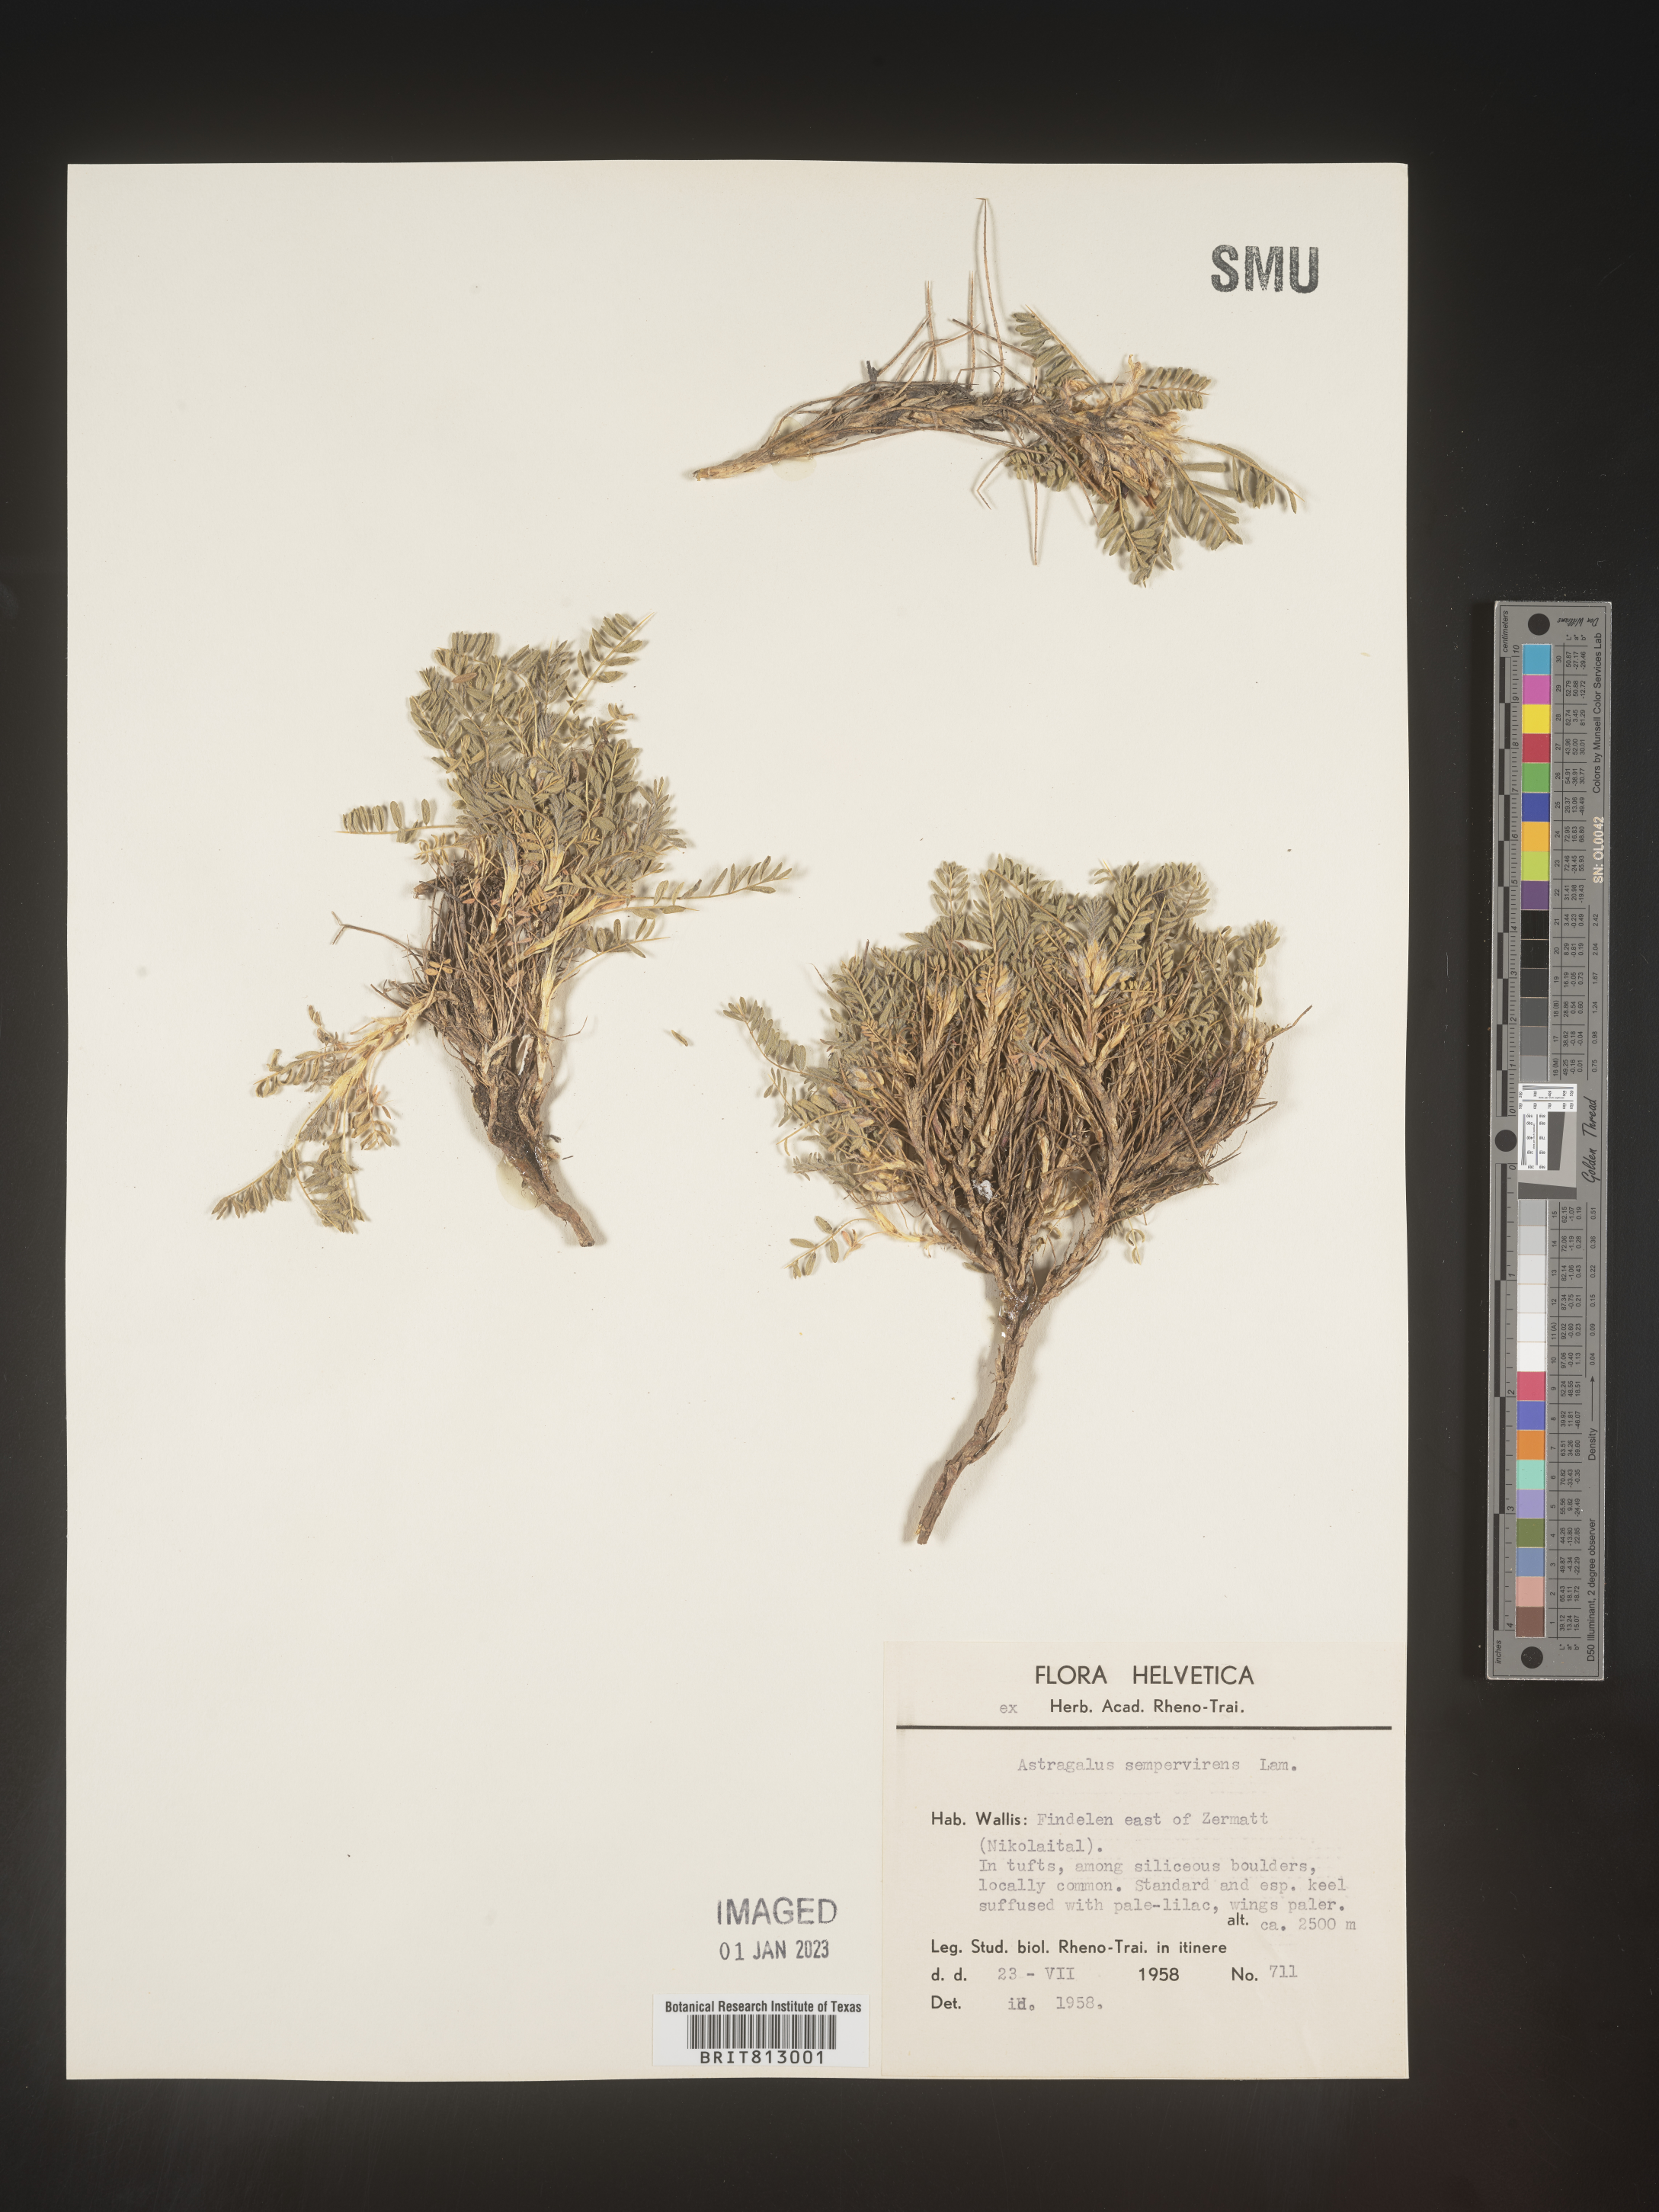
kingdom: Plantae
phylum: Tracheophyta
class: Magnoliopsida
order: Fabales
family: Fabaceae
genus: Astragalus
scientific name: Astragalus
